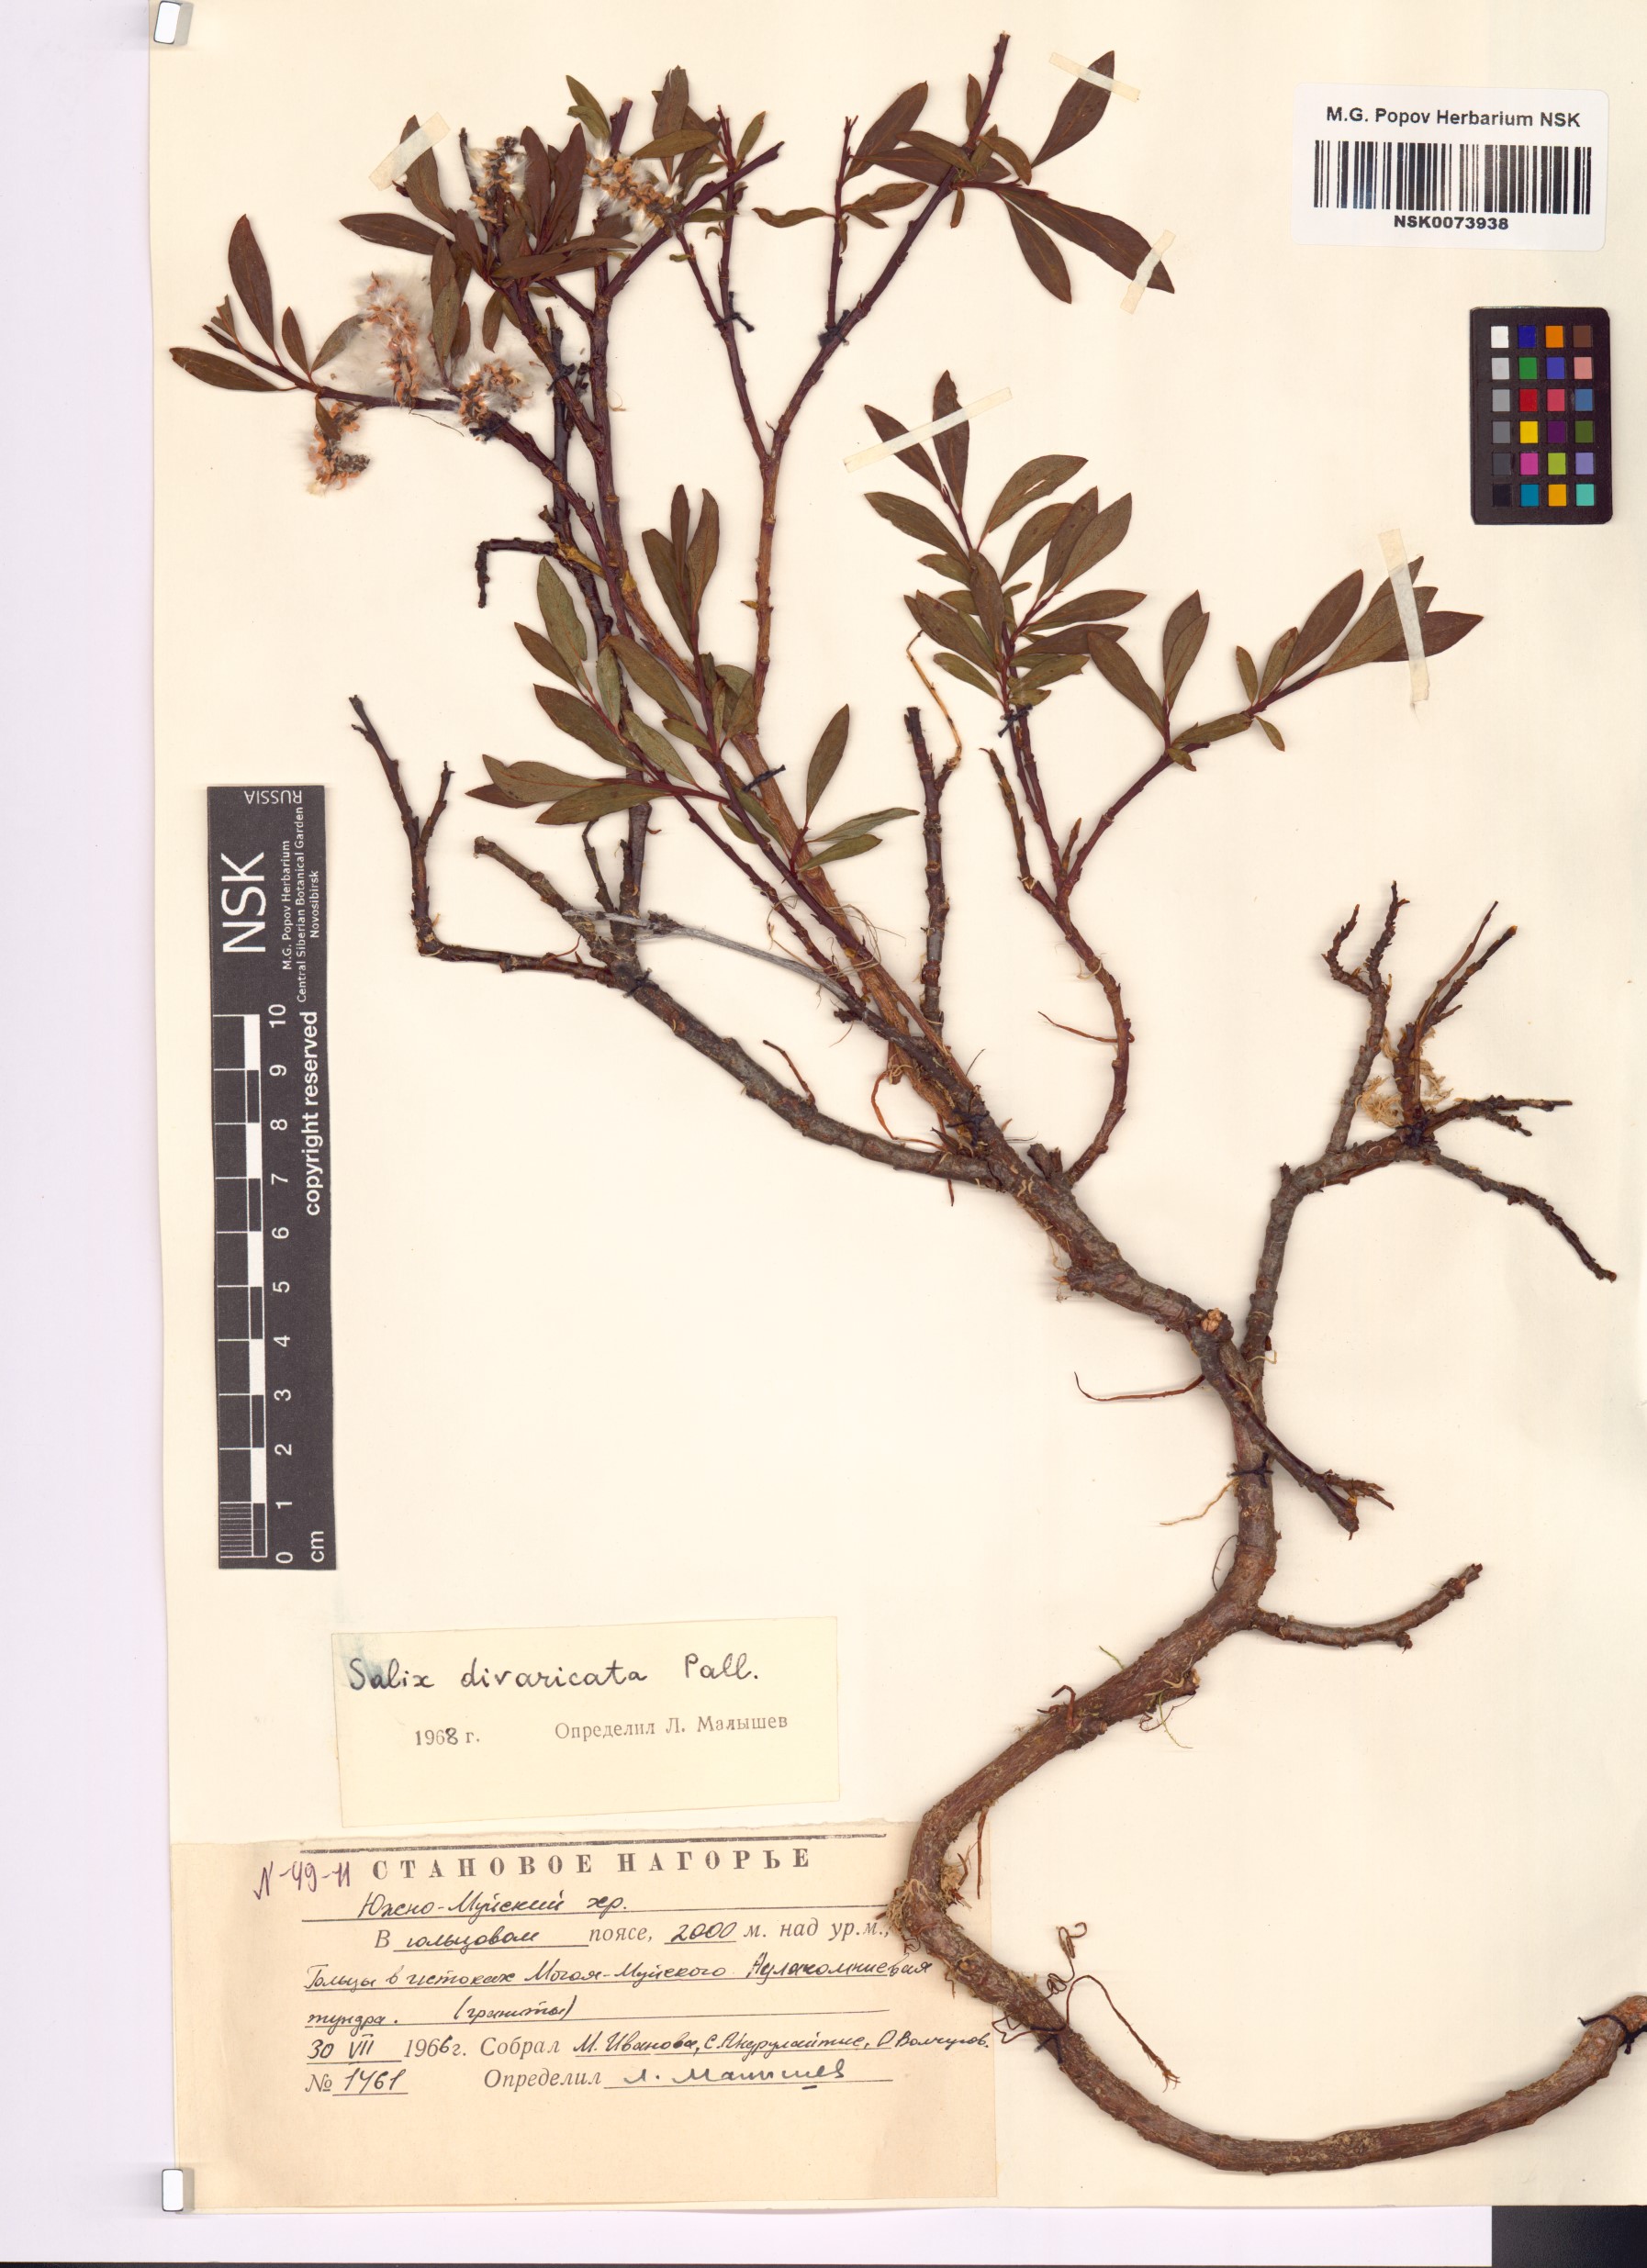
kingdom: Plantae
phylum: Tracheophyta
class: Magnoliopsida
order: Malpighiales
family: Salicaceae
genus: Salix
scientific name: Salix divaricata
